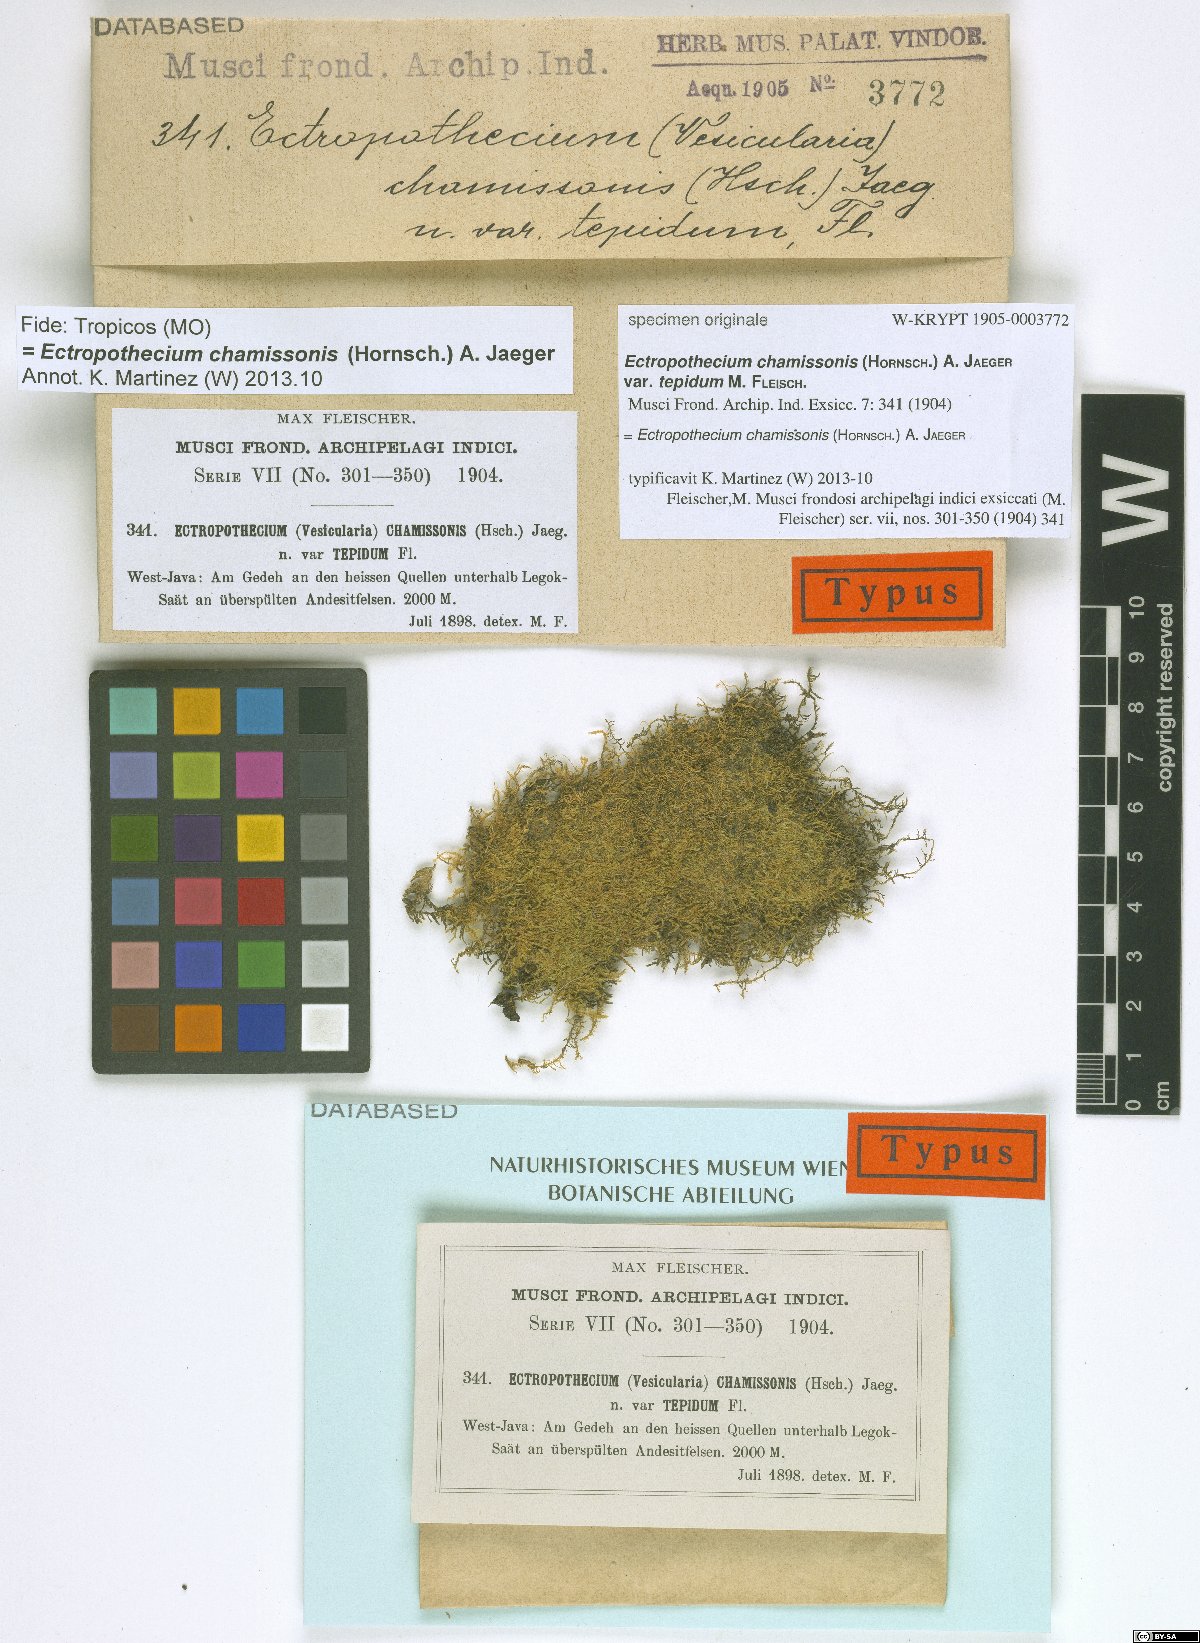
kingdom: Plantae
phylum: Bryophyta
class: Bryopsida
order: Hypnales
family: Hypnaceae
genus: Ectropothecium
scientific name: Ectropothecium chamissonis
